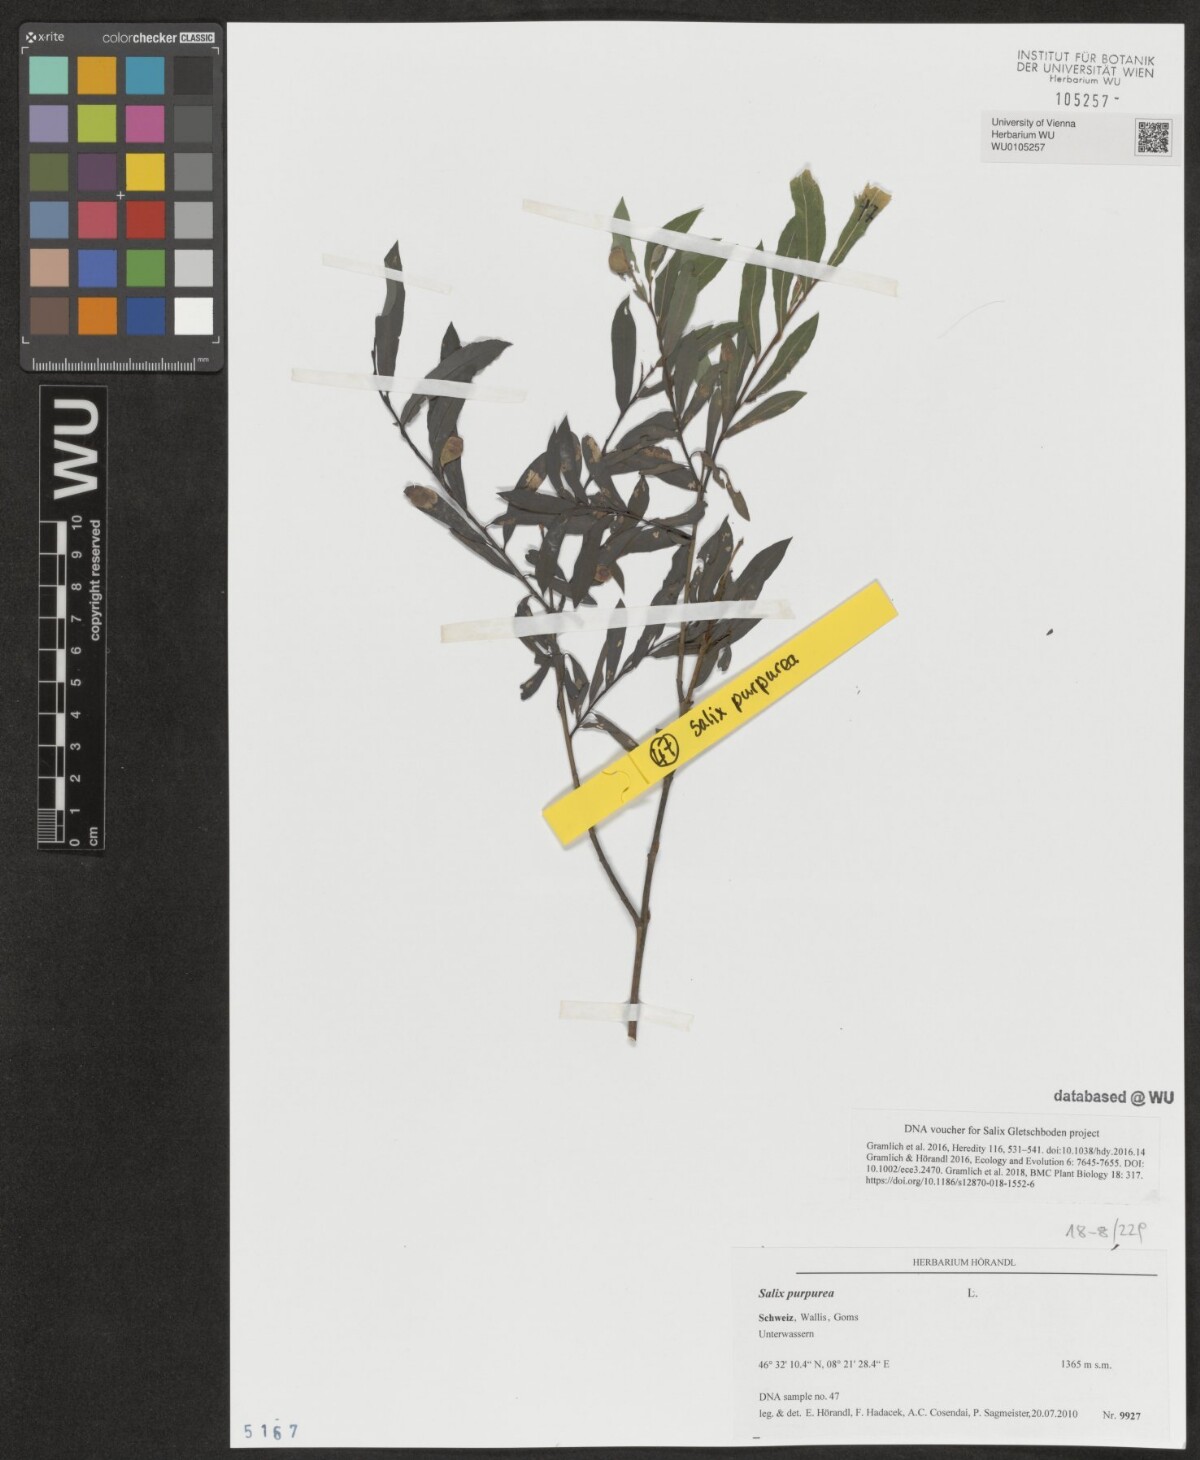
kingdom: Plantae
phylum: Tracheophyta
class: Magnoliopsida
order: Malpighiales
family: Salicaceae
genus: Salix
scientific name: Salix purpurea
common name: Purple willow
